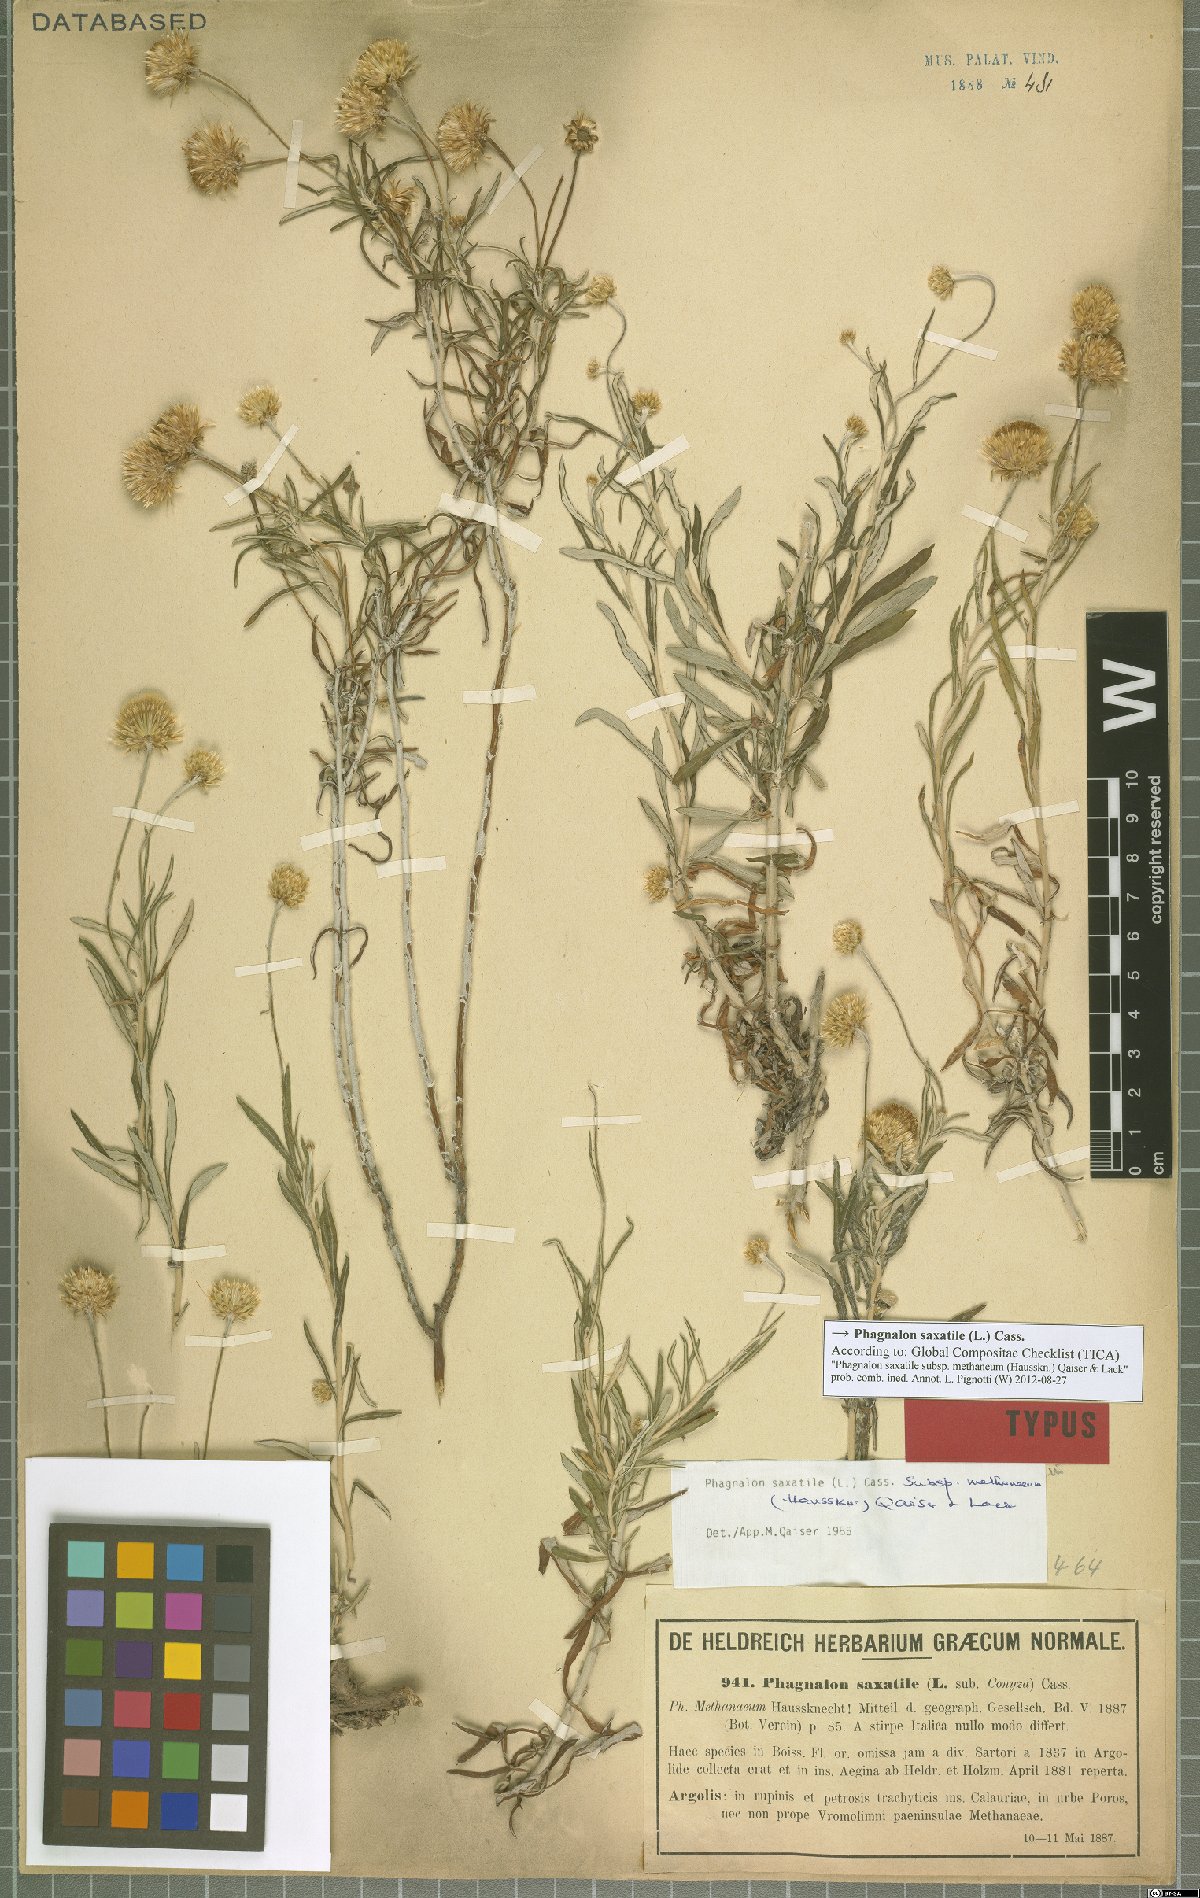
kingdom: Plantae
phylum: Tracheophyta
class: Magnoliopsida
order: Asterales
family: Asteraceae
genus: Phagnalon
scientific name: Phagnalon saxatile
